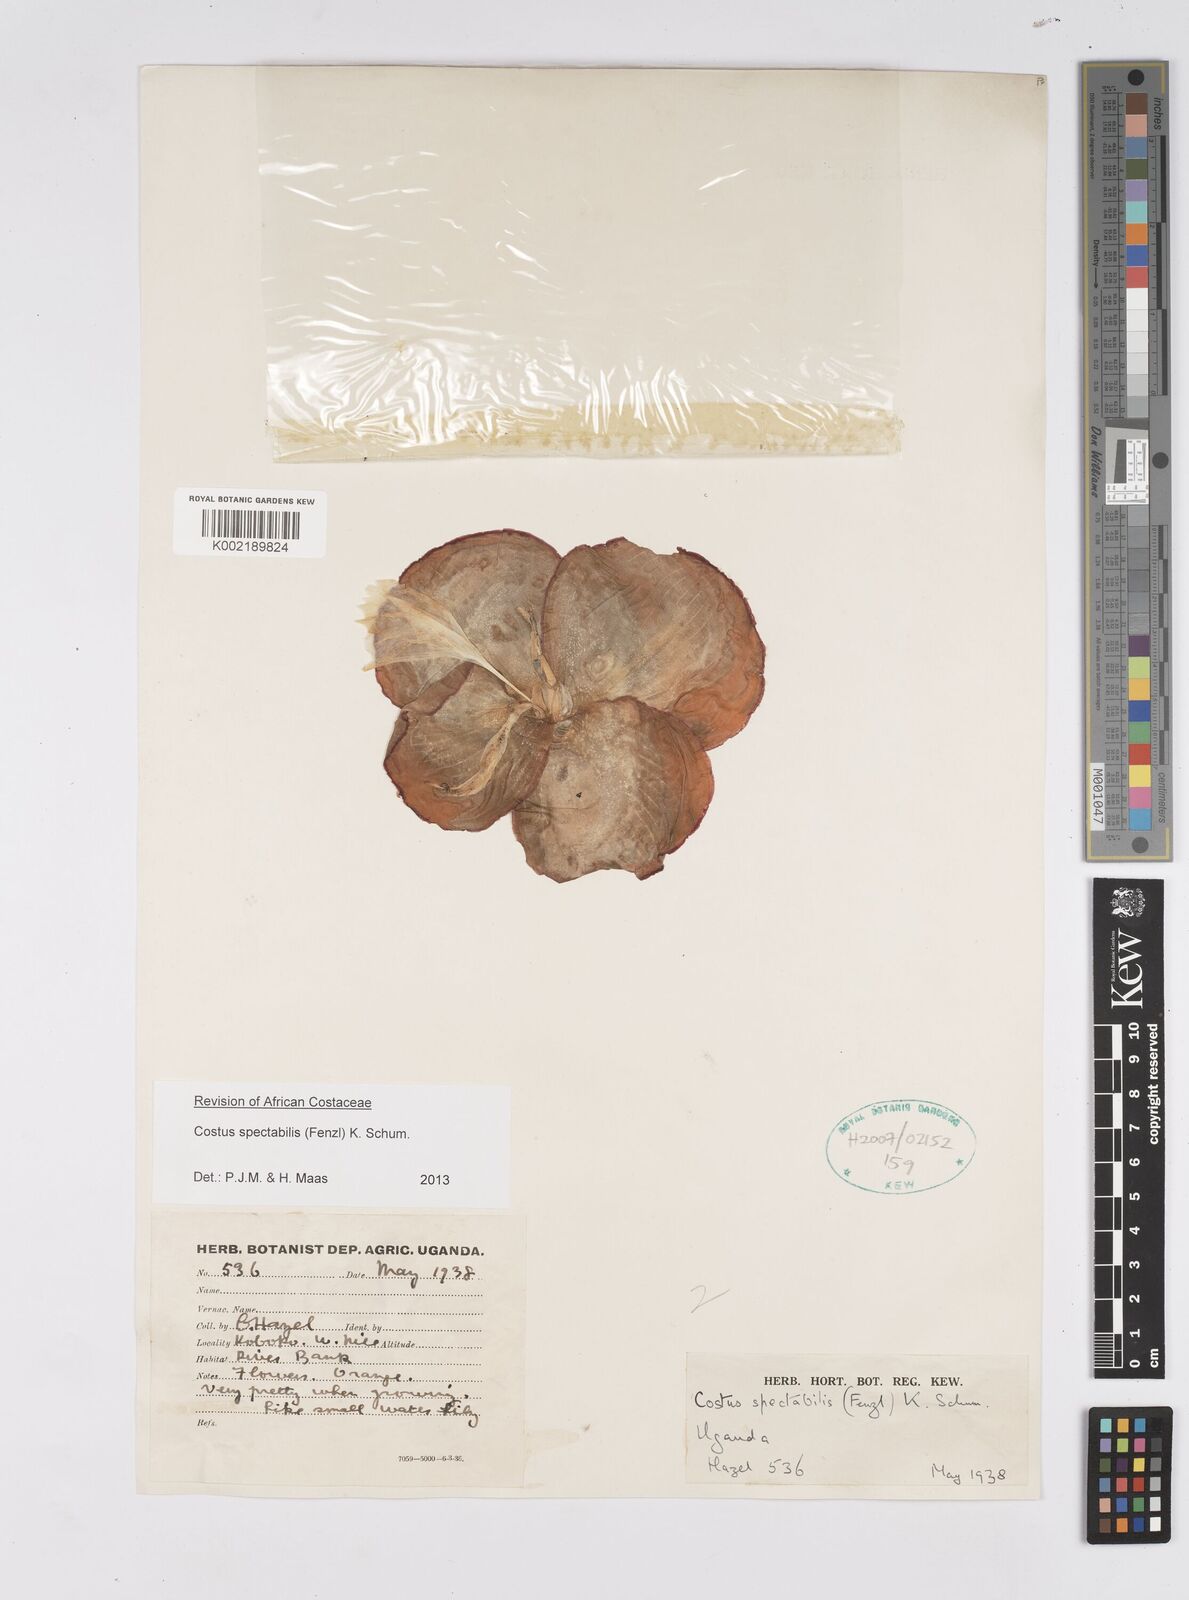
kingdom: Plantae
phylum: Tracheophyta
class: Liliopsida
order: Zingiberales
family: Costaceae
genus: Costus
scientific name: Costus spectabilis
